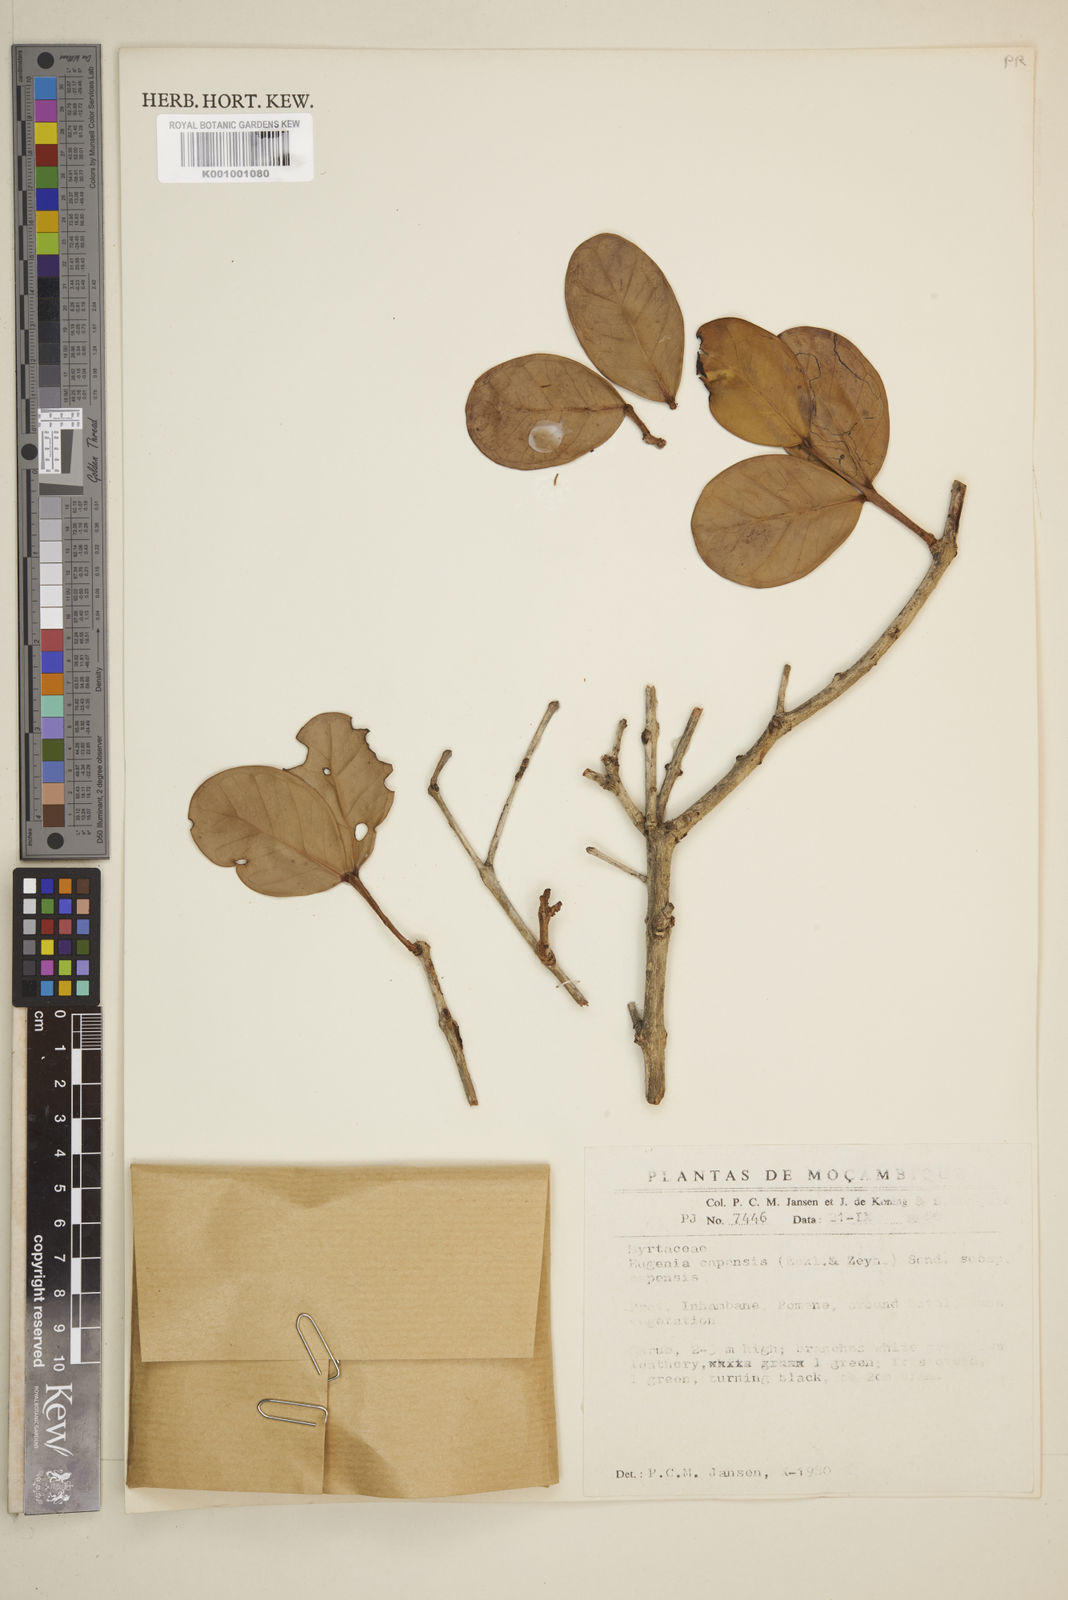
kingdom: Plantae
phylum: Tracheophyta
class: Magnoliopsida
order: Myrtales
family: Myrtaceae
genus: Eugenia
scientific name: Eugenia capensis
